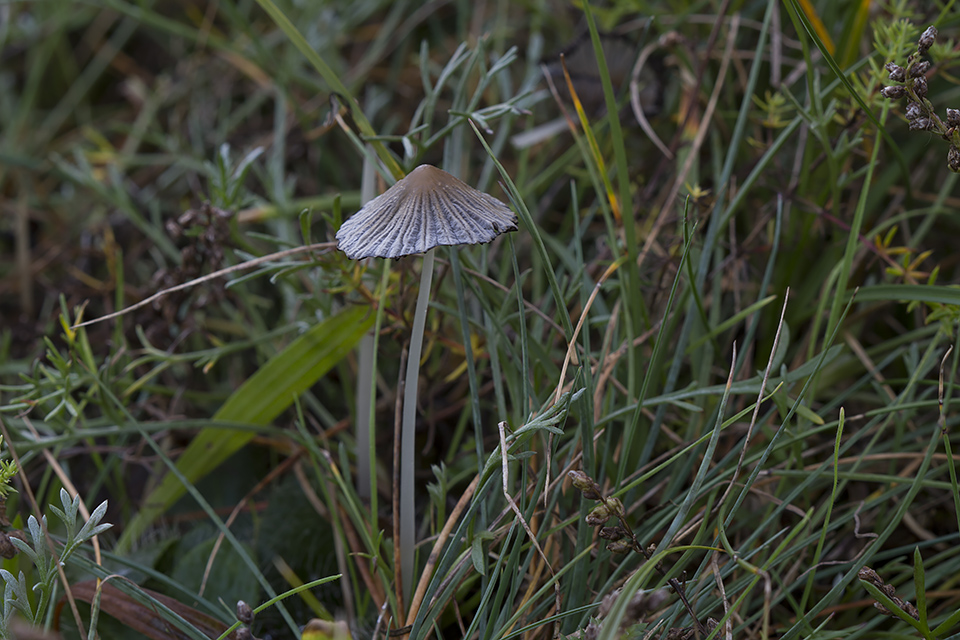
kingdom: Fungi
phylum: Basidiomycota
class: Agaricomycetes
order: Agaricales
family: Psathyrellaceae
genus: Tulosesus
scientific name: Tulosesus sclerocystidiosus
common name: brunhåret blækhat
